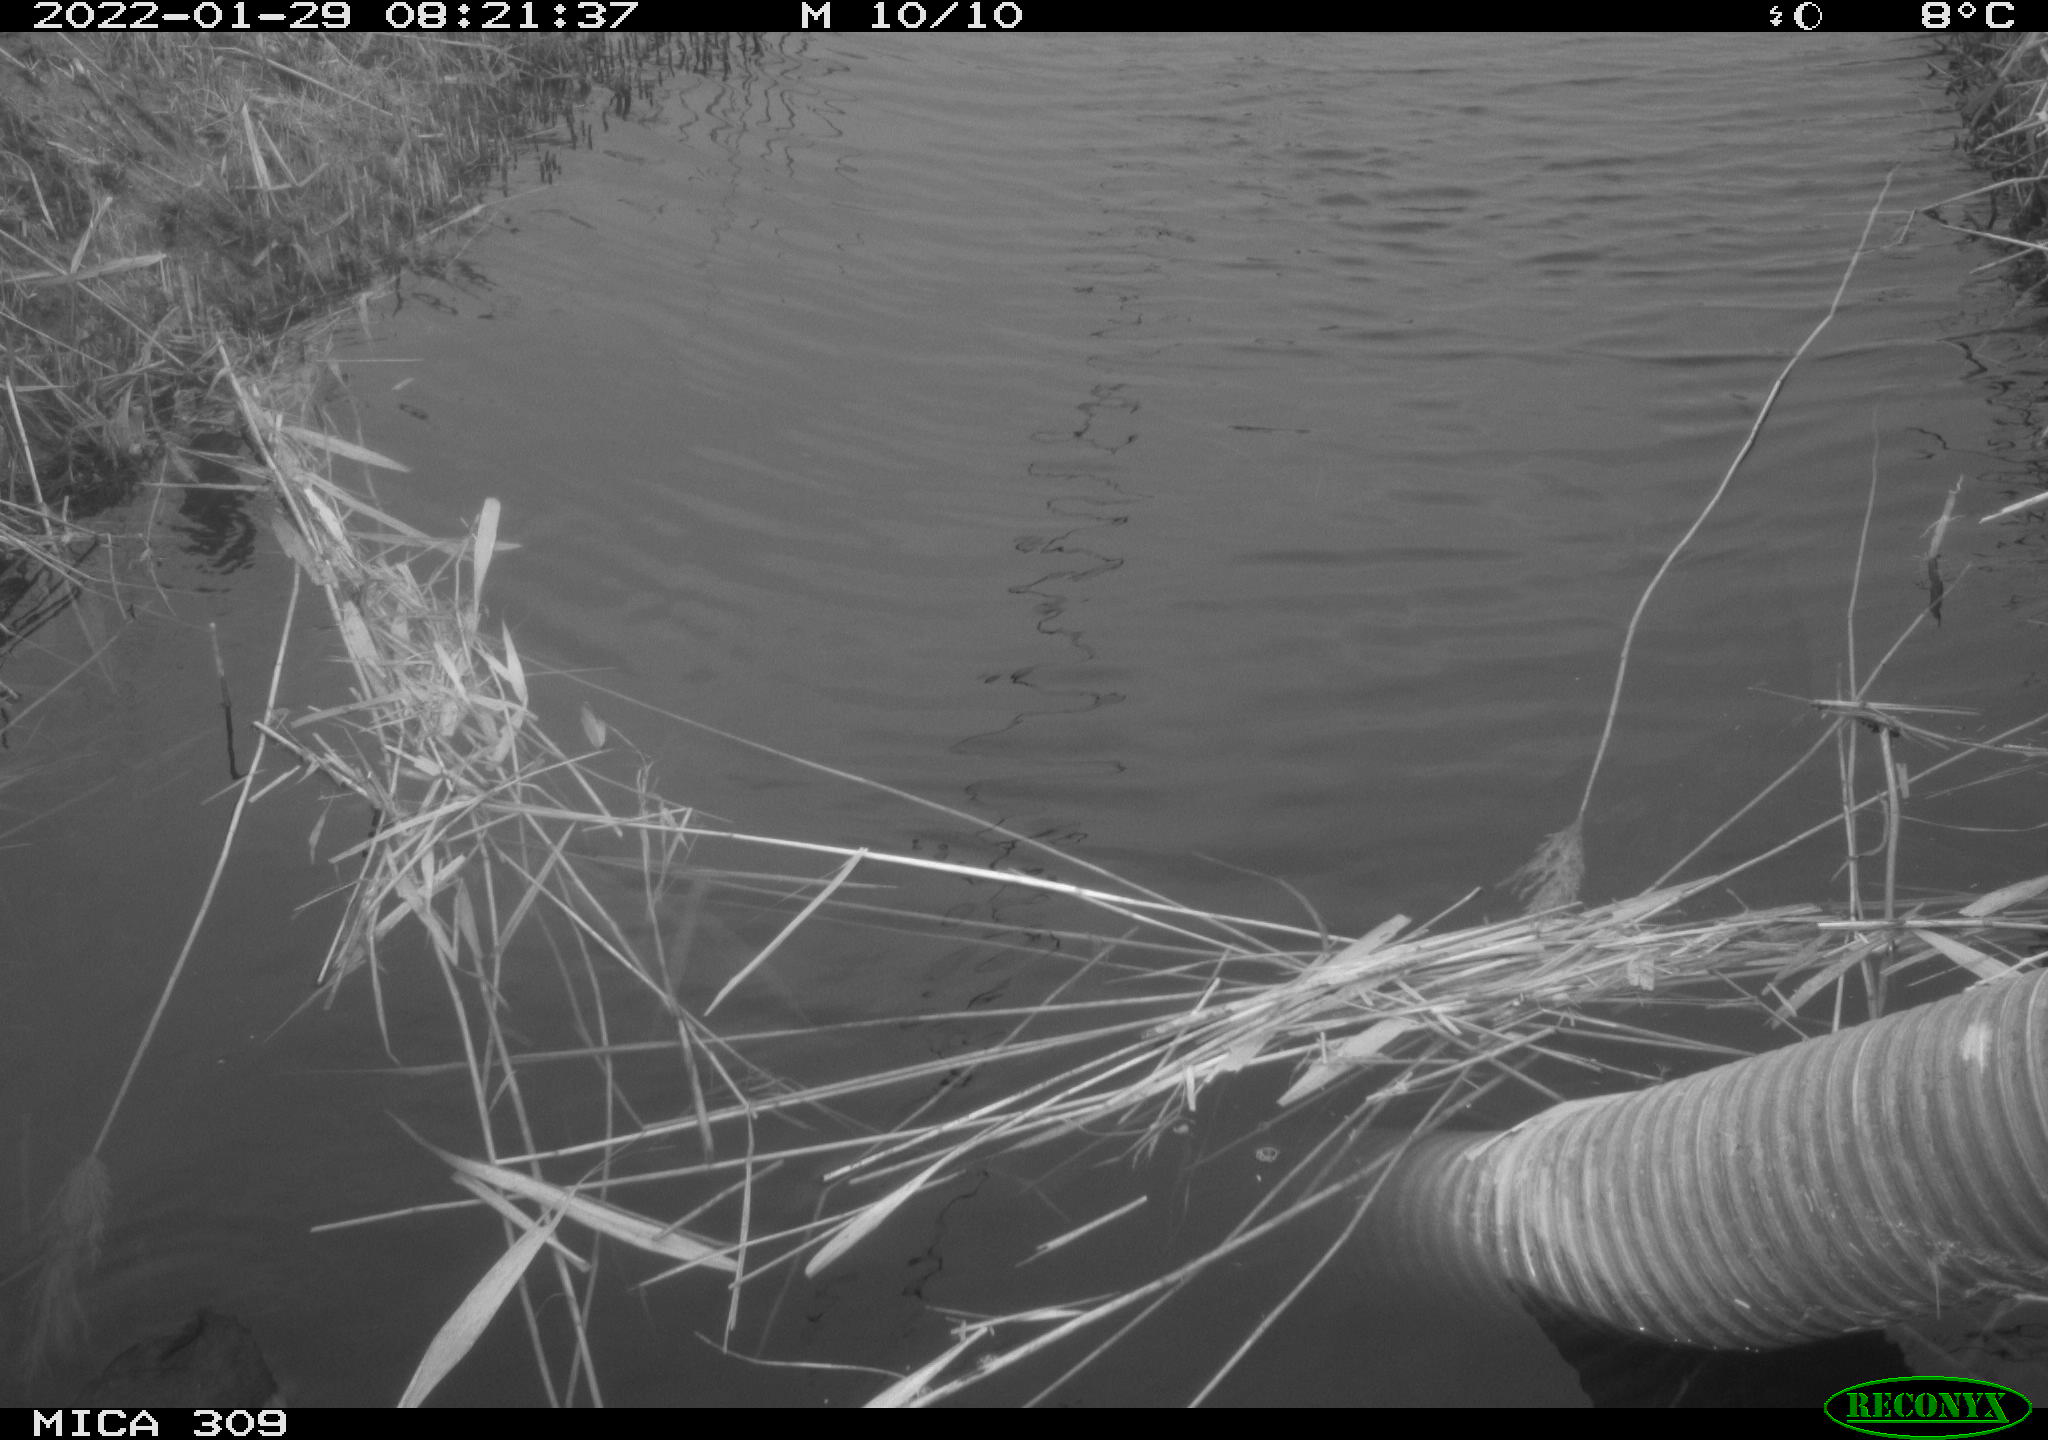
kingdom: Animalia
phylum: Chordata
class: Aves
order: Gruiformes
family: Rallidae
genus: Gallinula
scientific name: Gallinula chloropus
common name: Common moorhen
